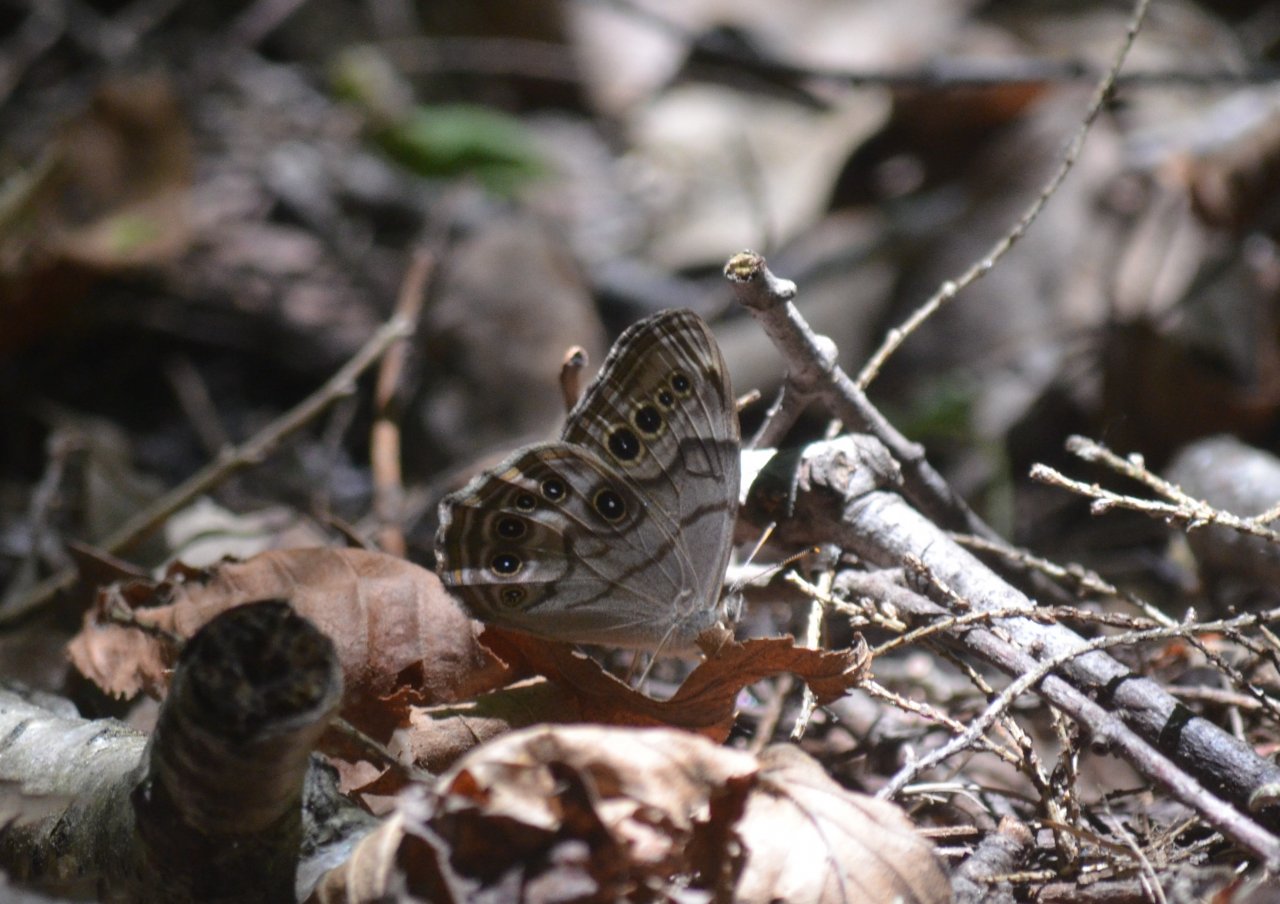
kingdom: Animalia
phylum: Arthropoda
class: Insecta
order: Lepidoptera
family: Nymphalidae
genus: Lethe
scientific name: Lethe anthedon
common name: Northern Pearly-Eye
